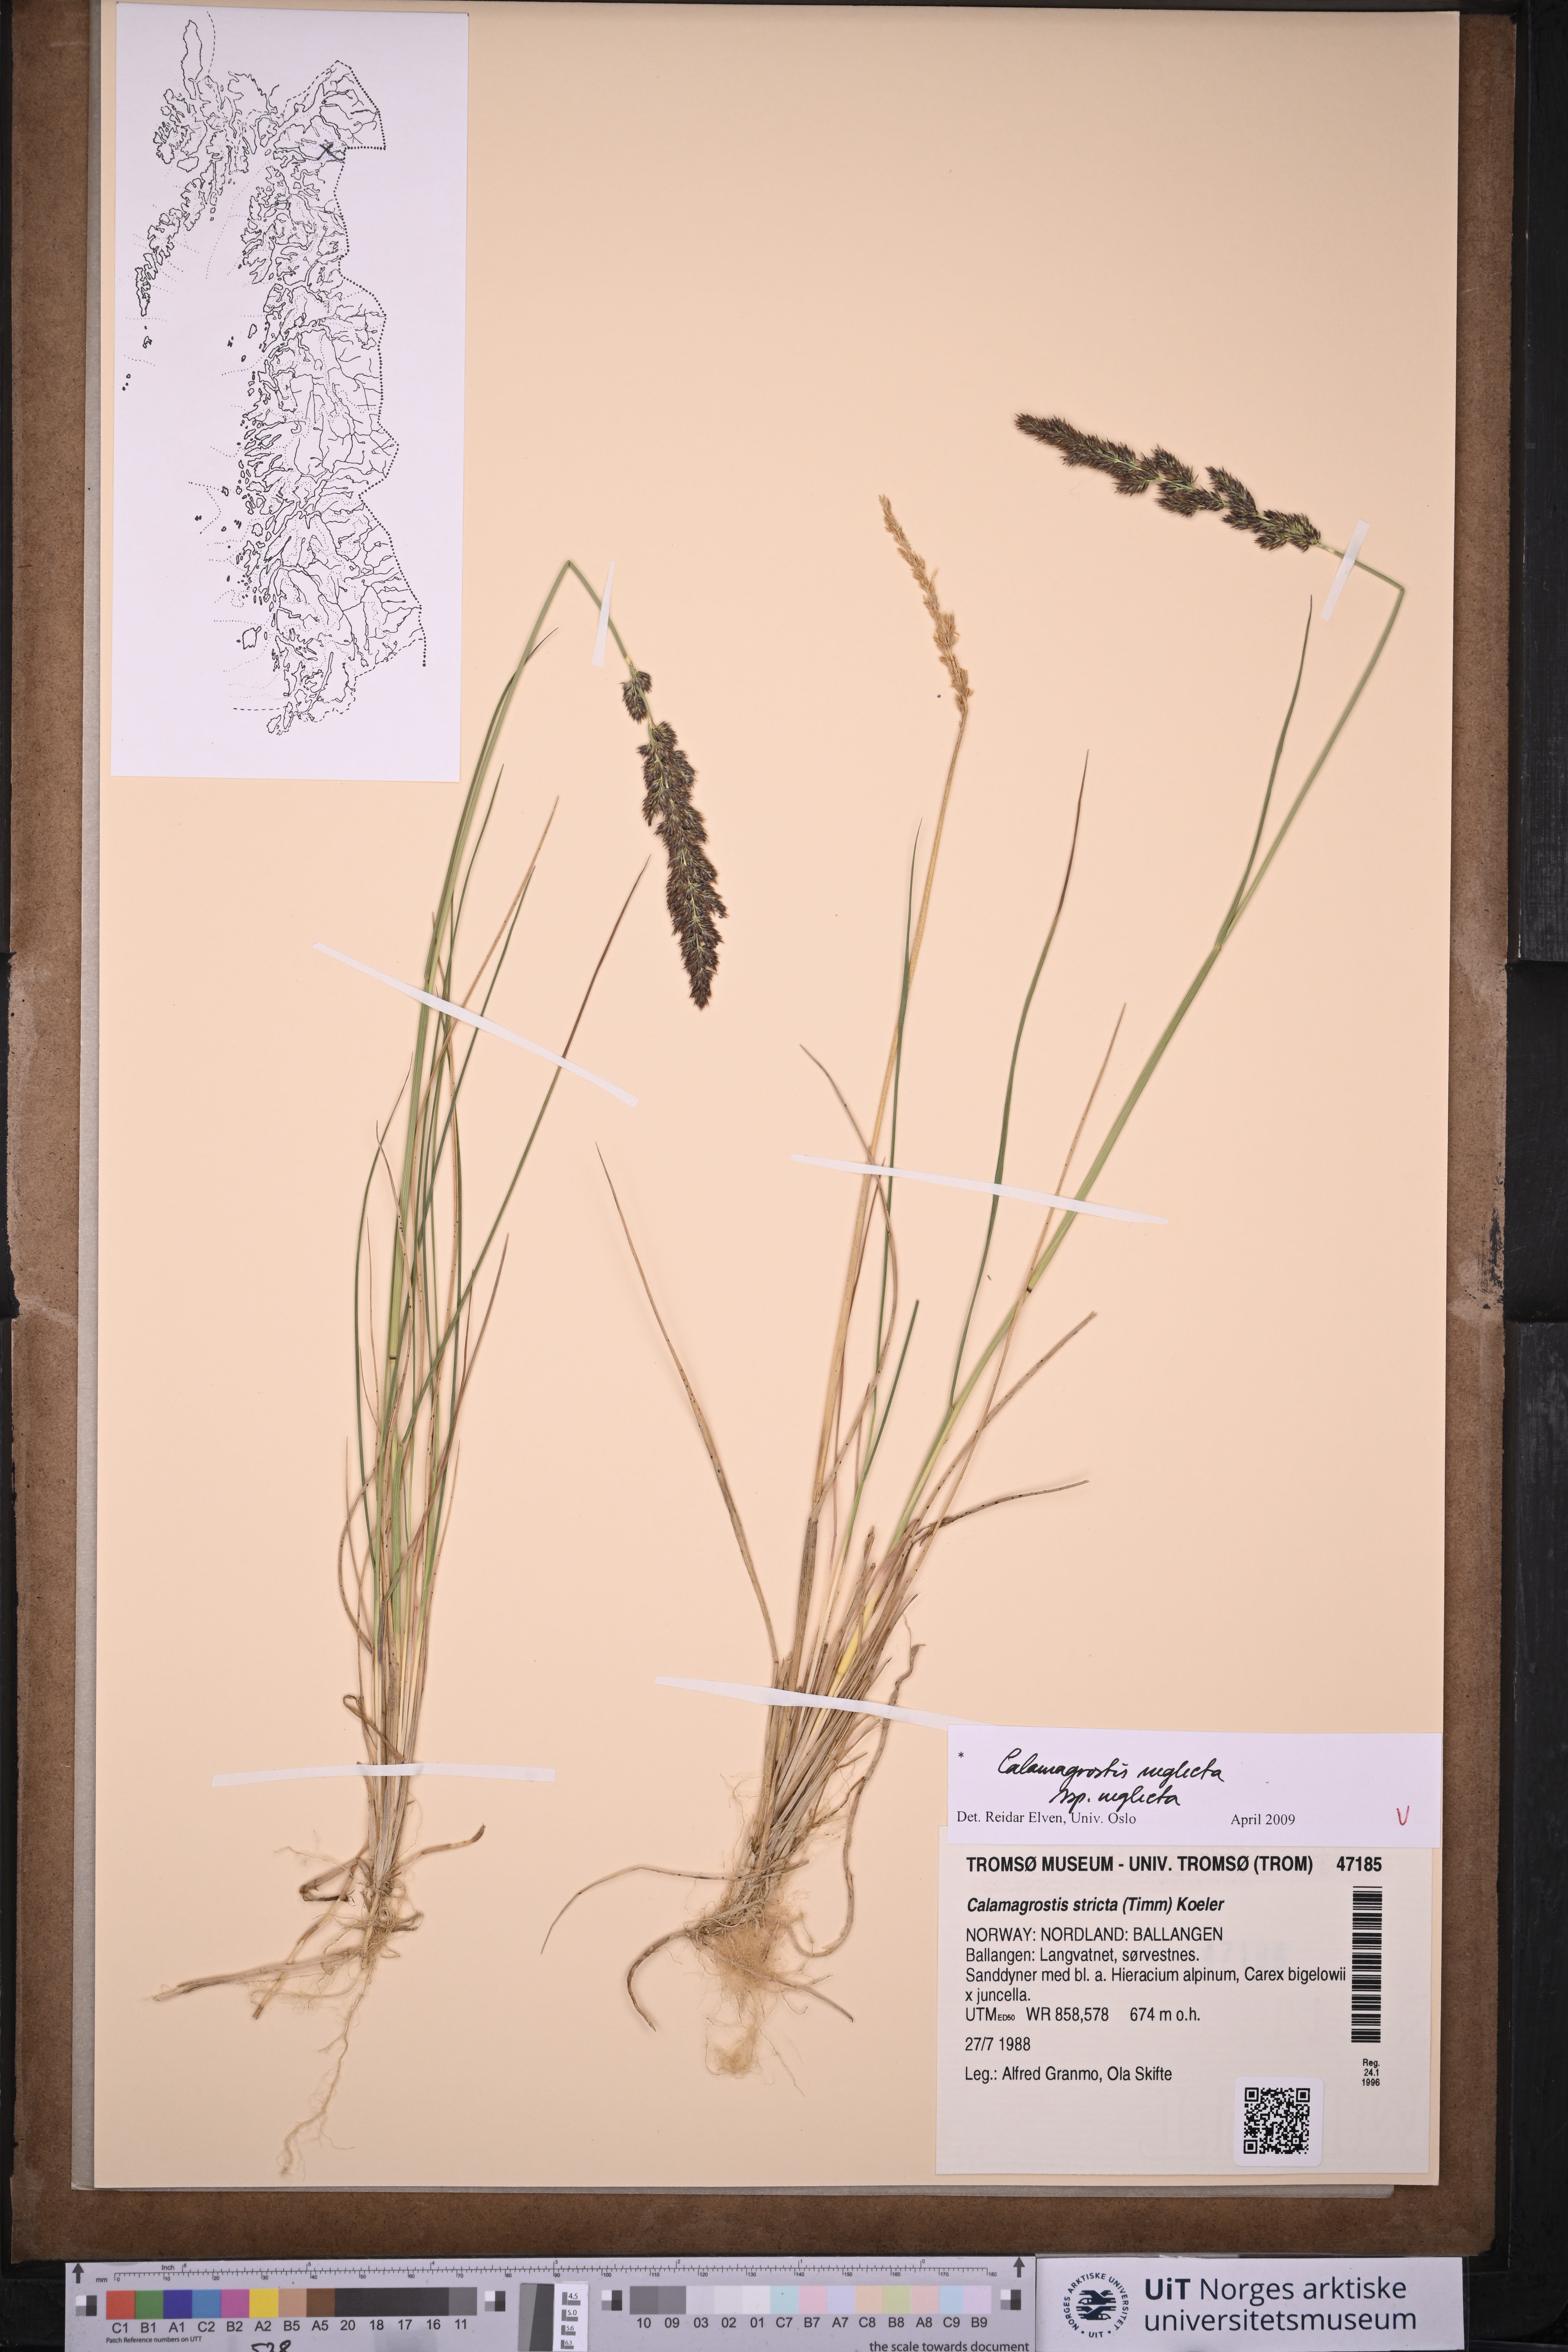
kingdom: Plantae
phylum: Tracheophyta
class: Liliopsida
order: Poales
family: Poaceae
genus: Achnatherum
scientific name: Achnatherum calamagrostis
